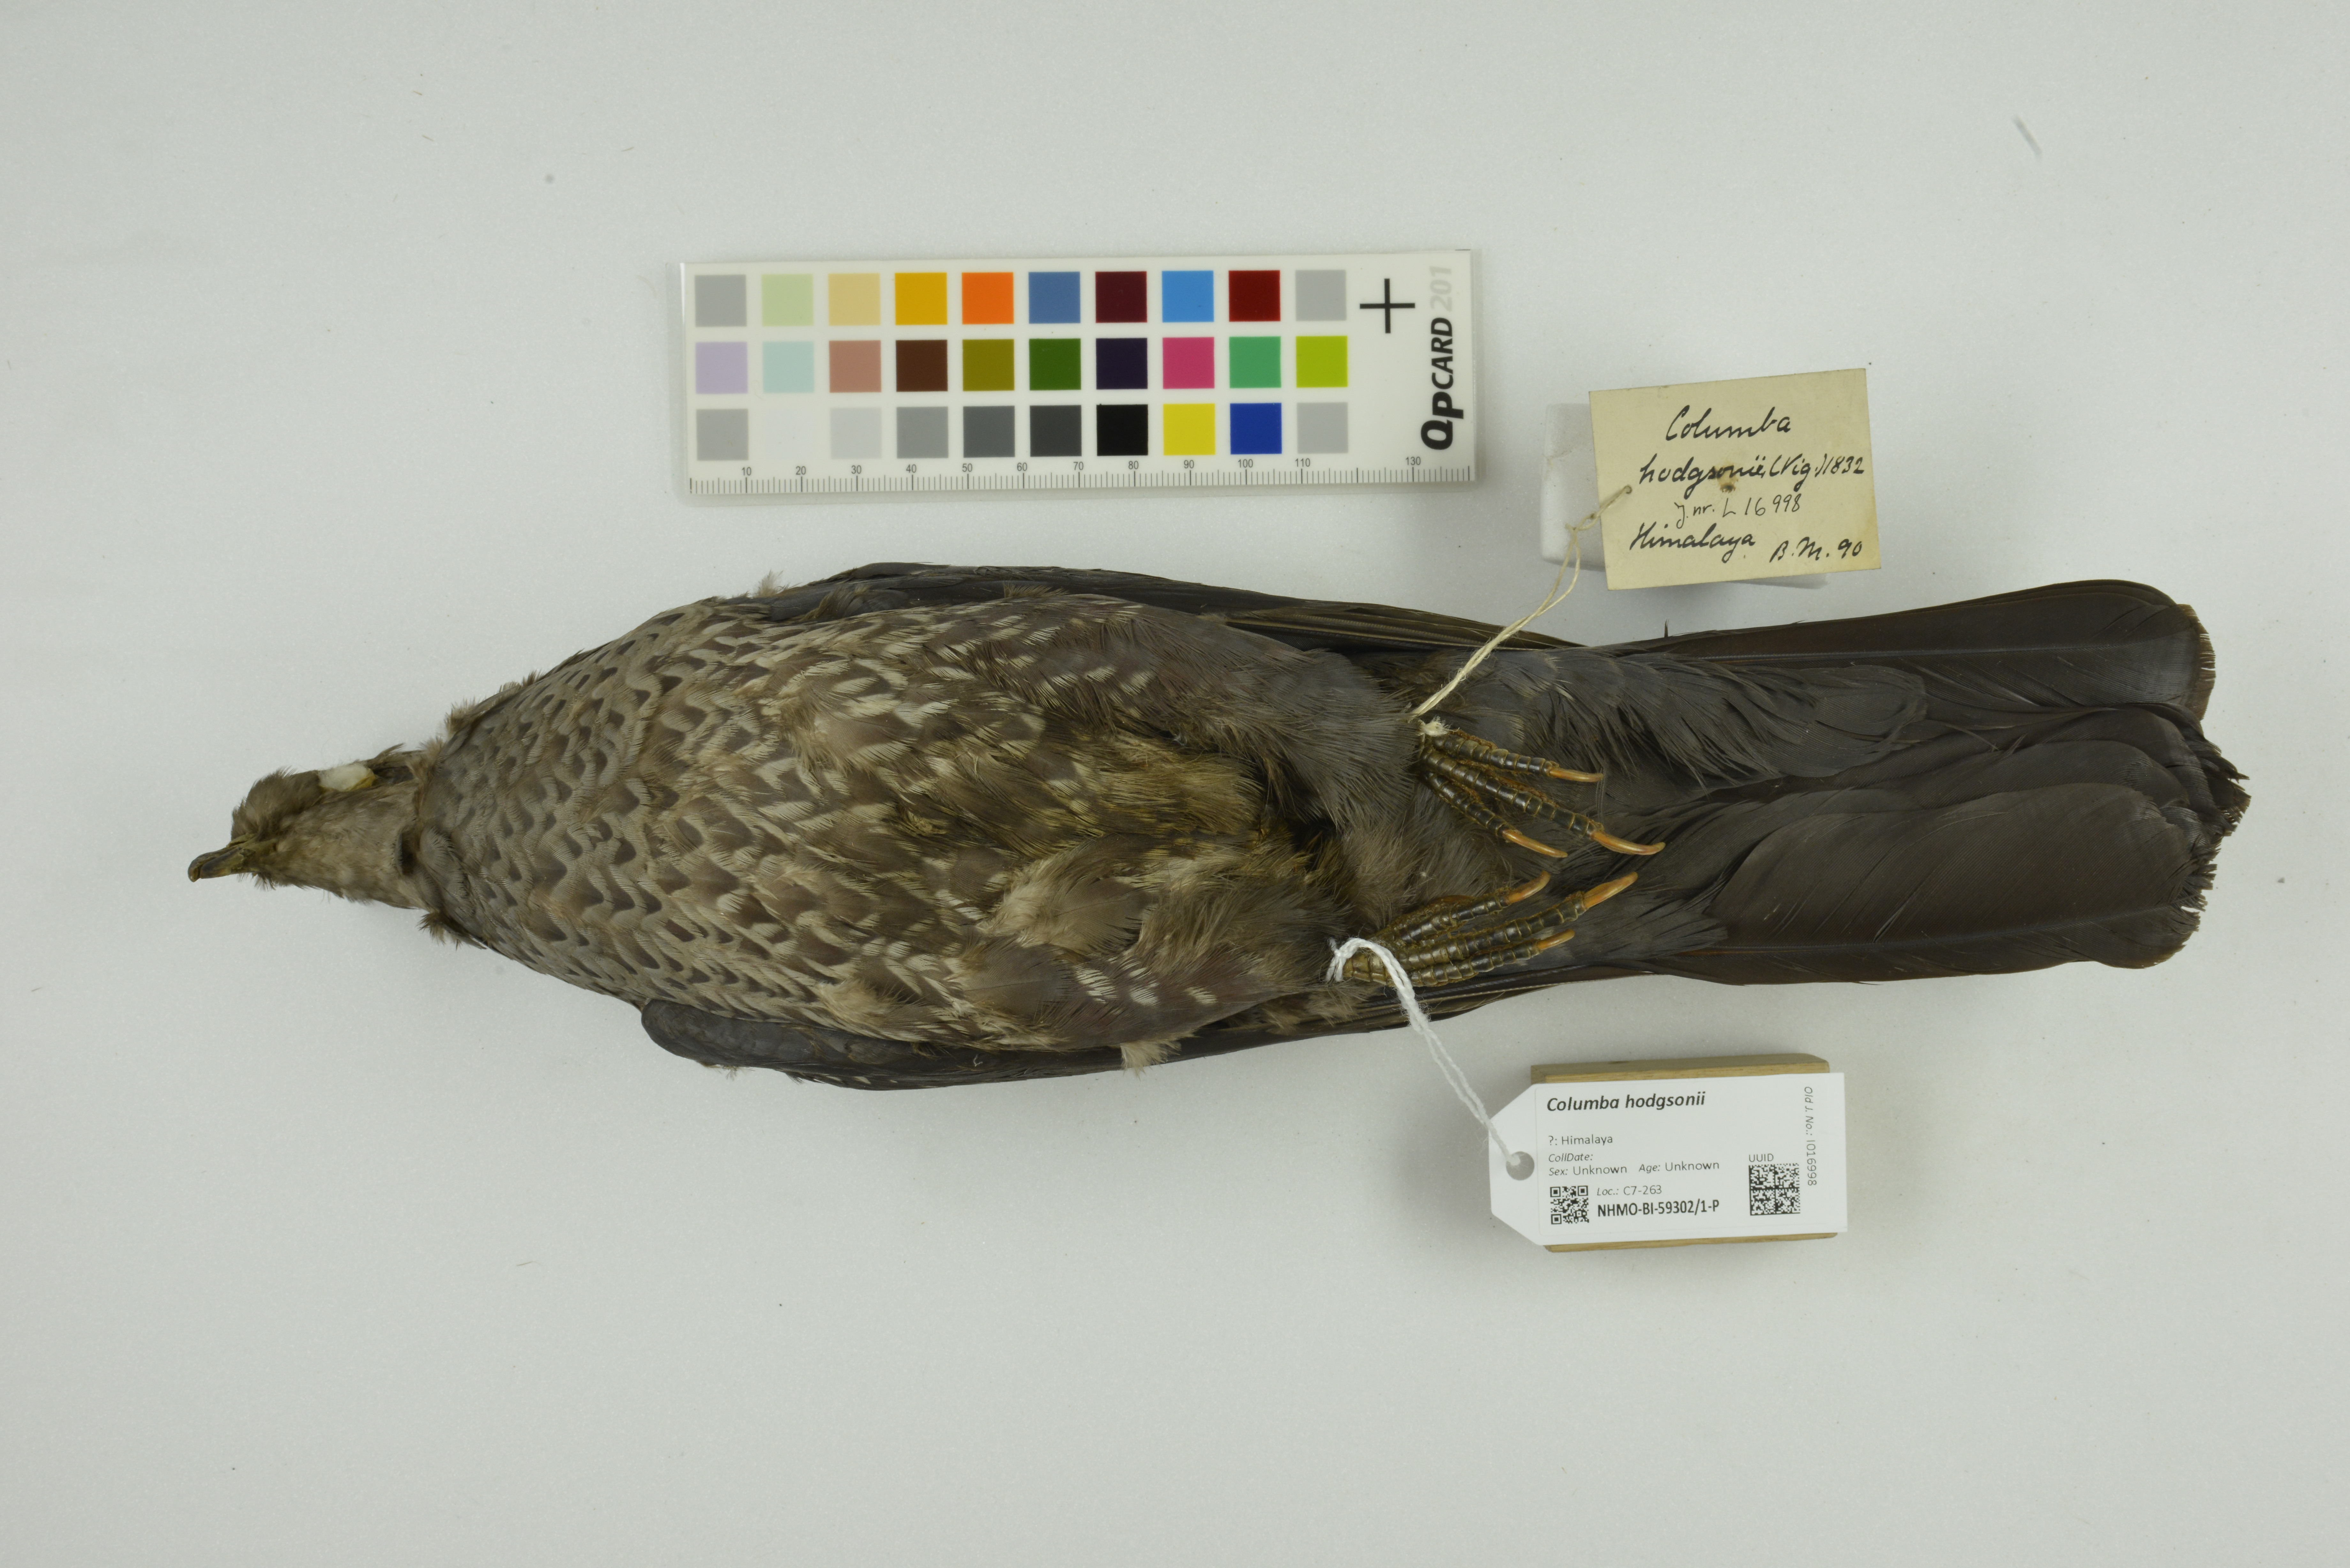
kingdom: Animalia
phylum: Chordata
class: Aves
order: Columbiformes
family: Columbidae
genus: Columba
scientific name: Columba hodgsonii
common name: Speckled wood pigeon
